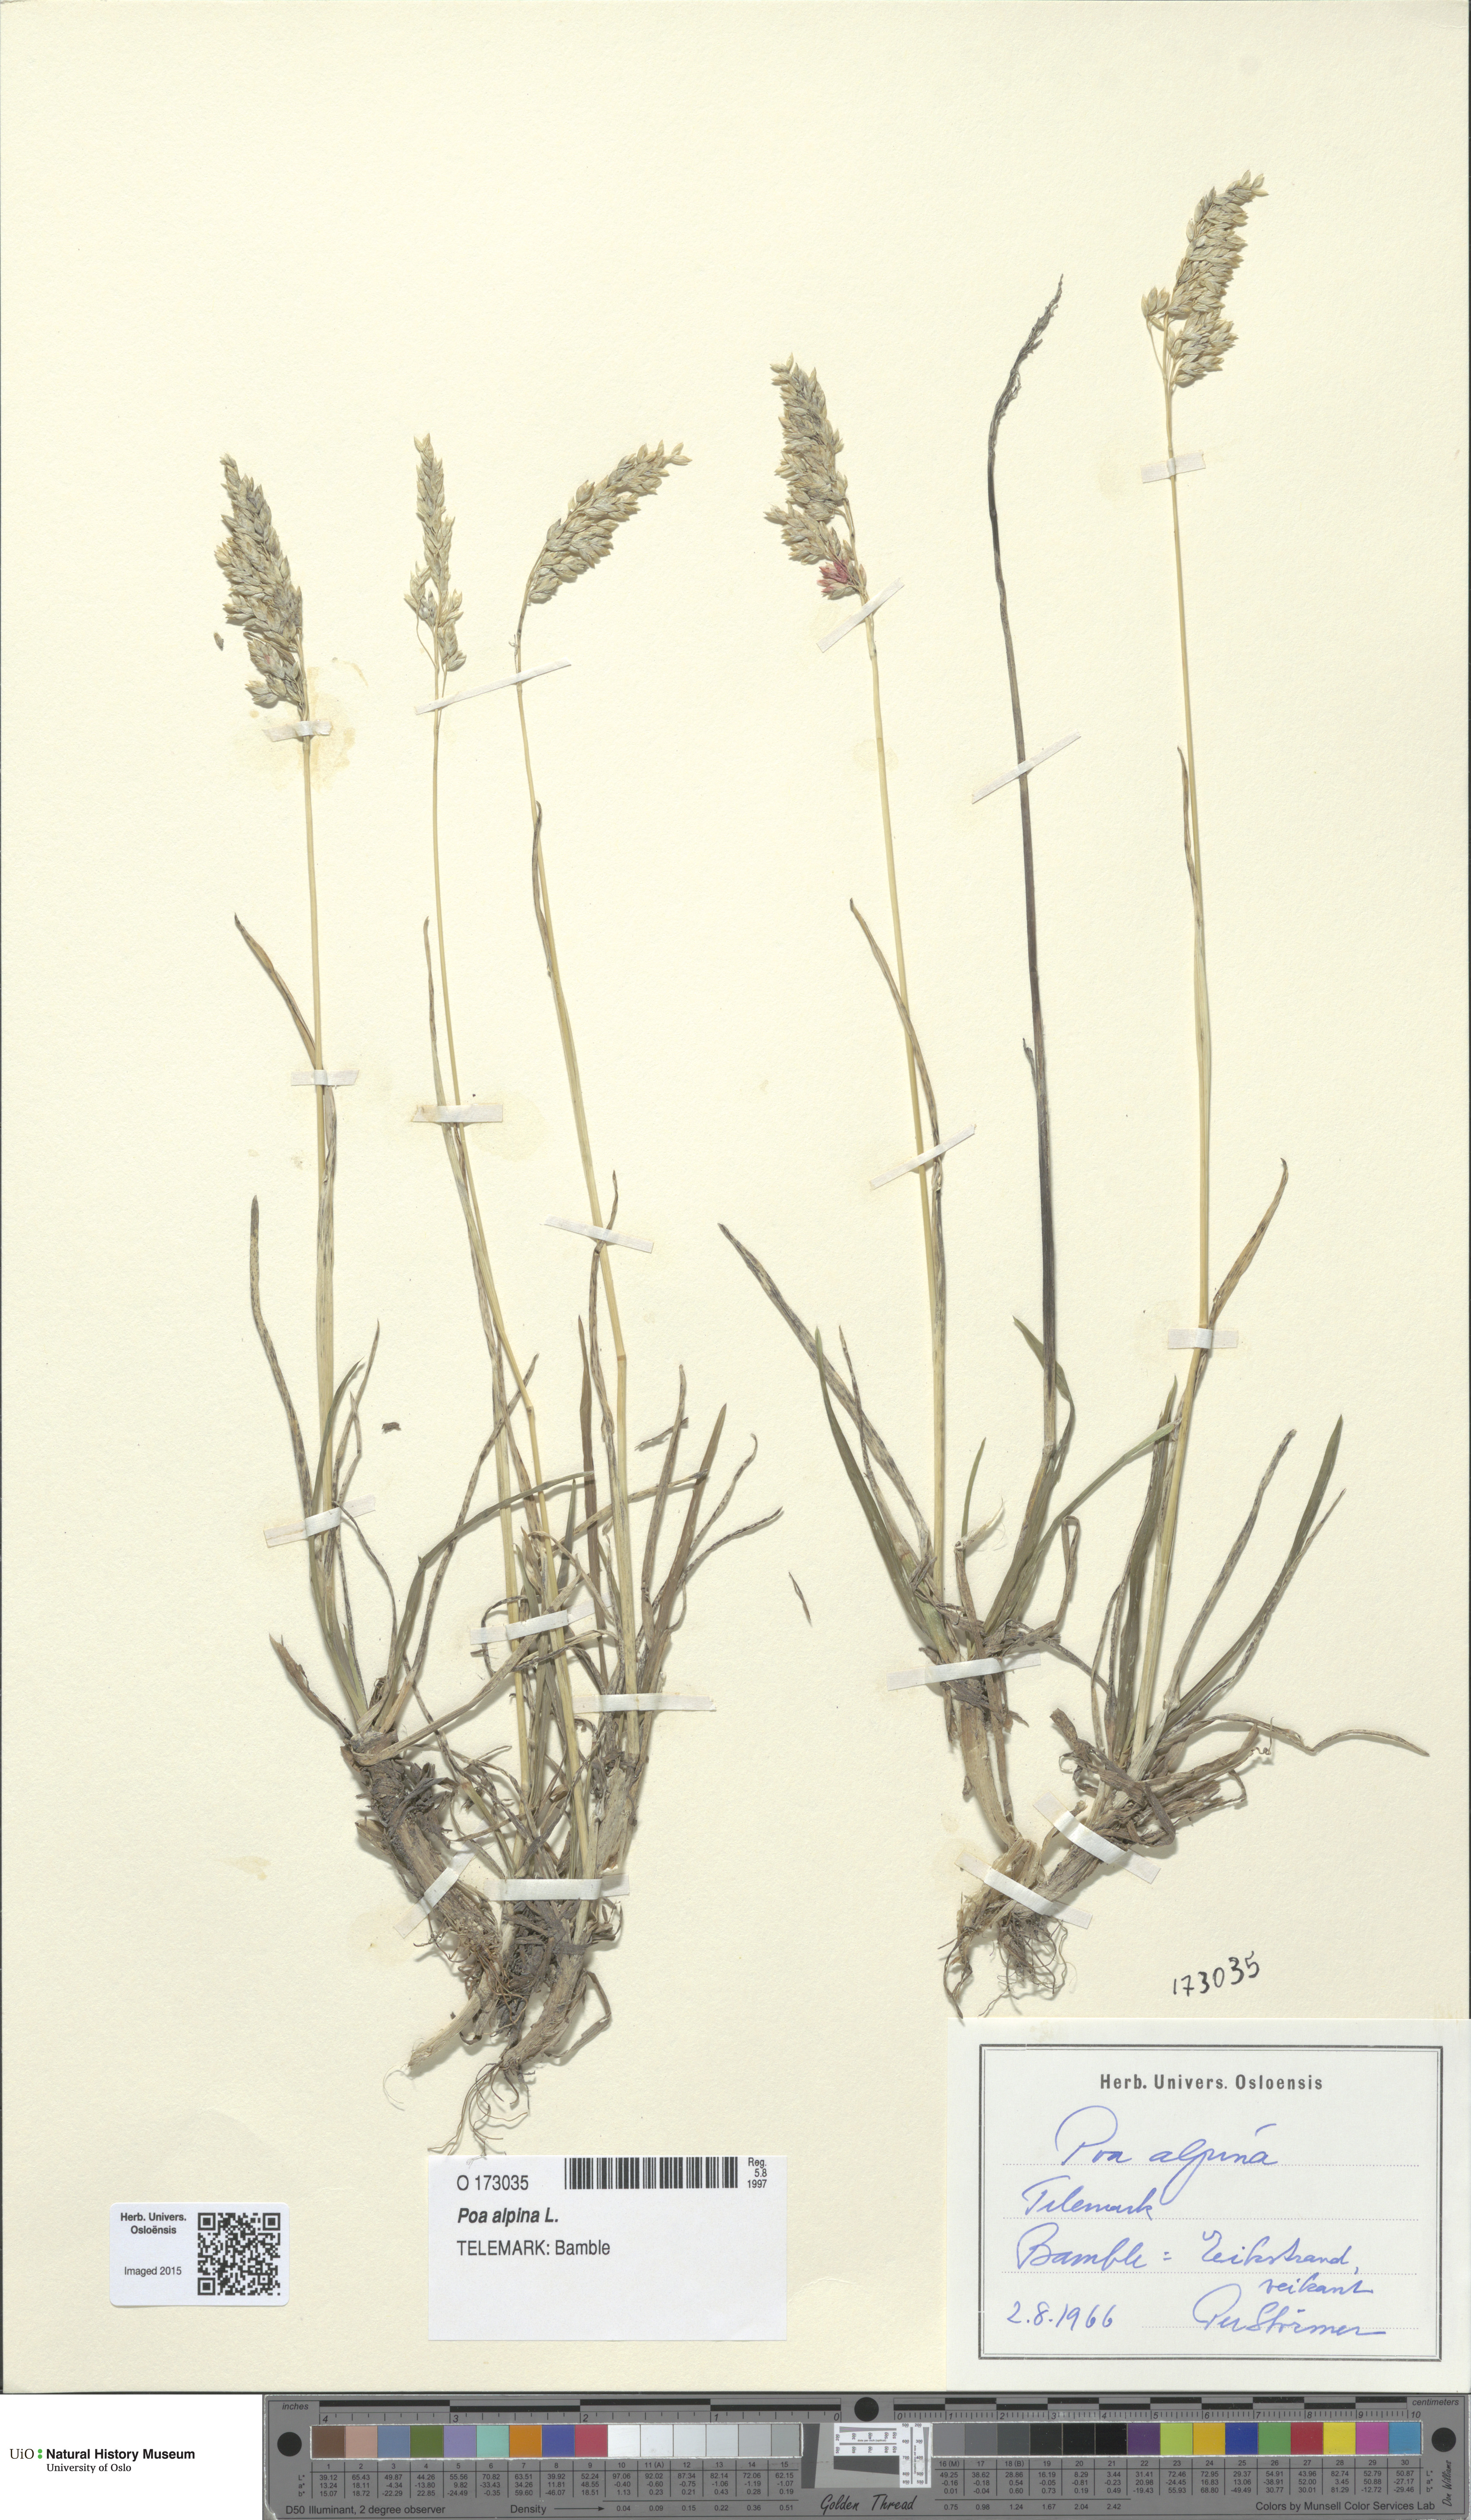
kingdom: Plantae
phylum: Tracheophyta
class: Liliopsida
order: Poales
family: Poaceae
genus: Poa
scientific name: Poa alpina
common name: Alpine bluegrass
